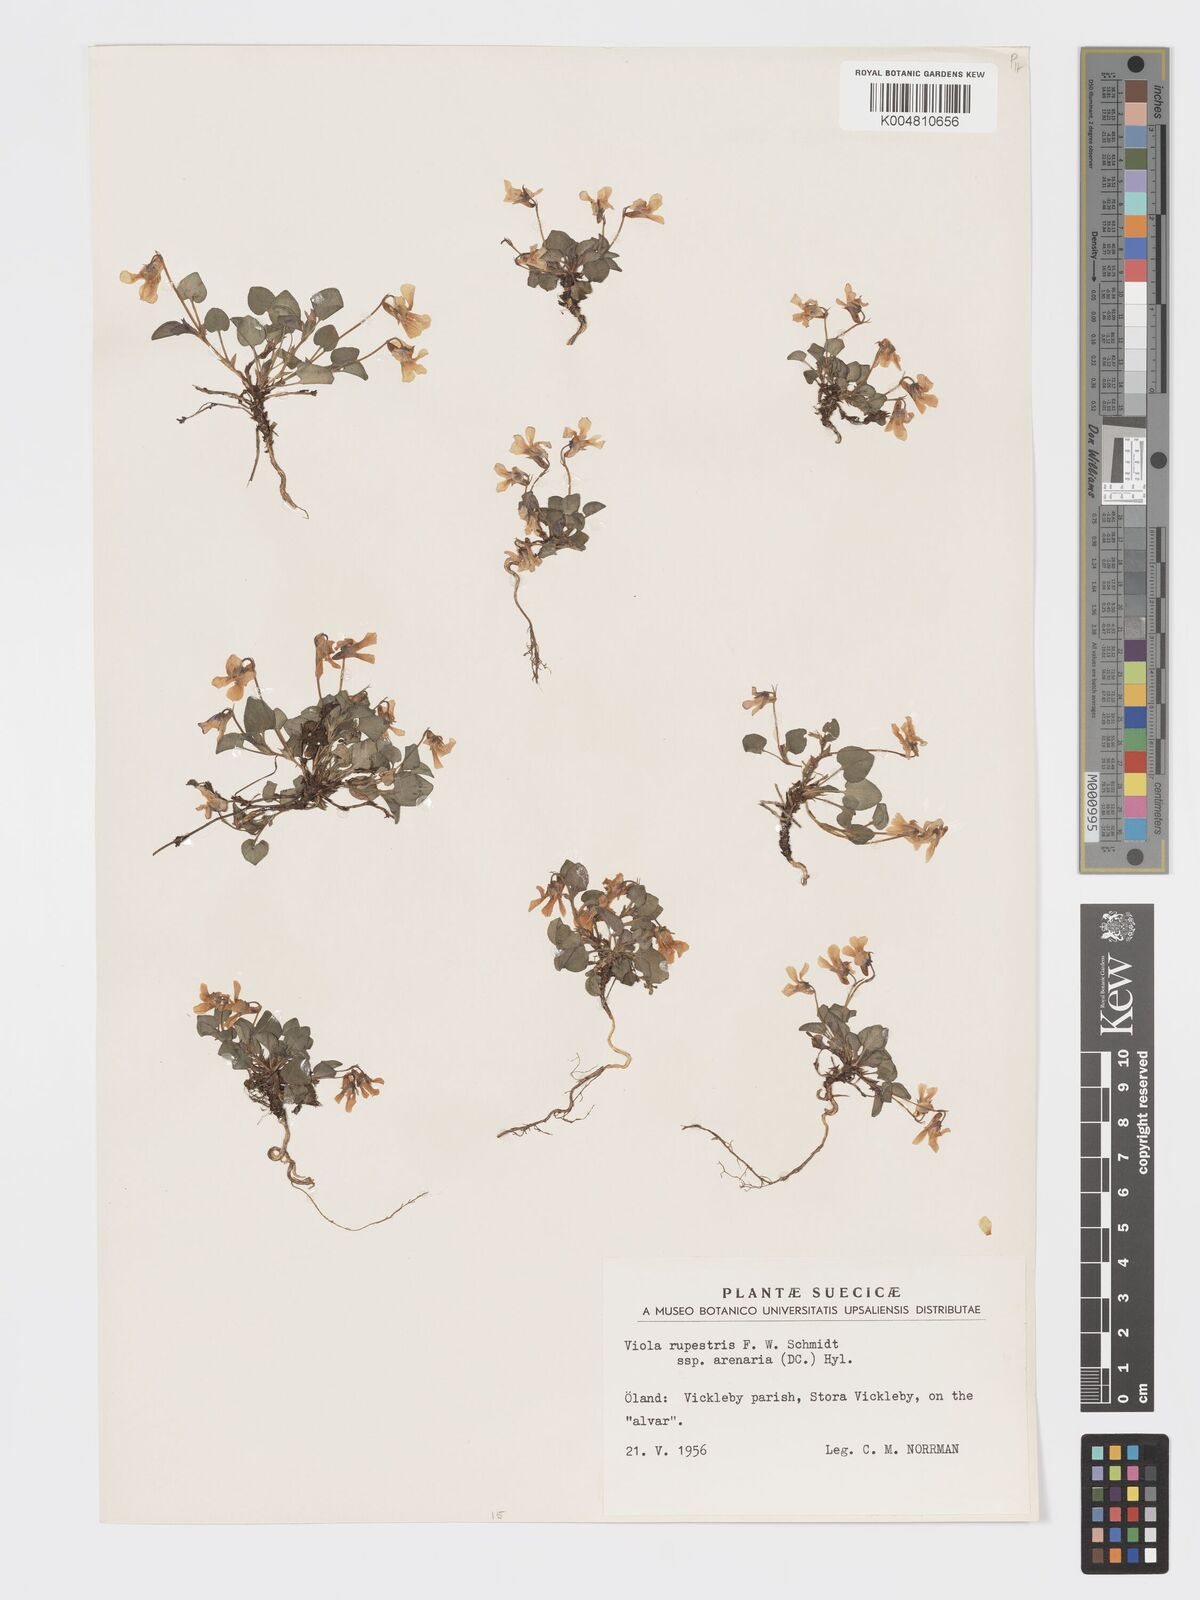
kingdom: Plantae
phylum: Tracheophyta
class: Magnoliopsida
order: Malpighiales
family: Violaceae
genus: Viola
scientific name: Viola rupestris
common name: Teesdale violet
